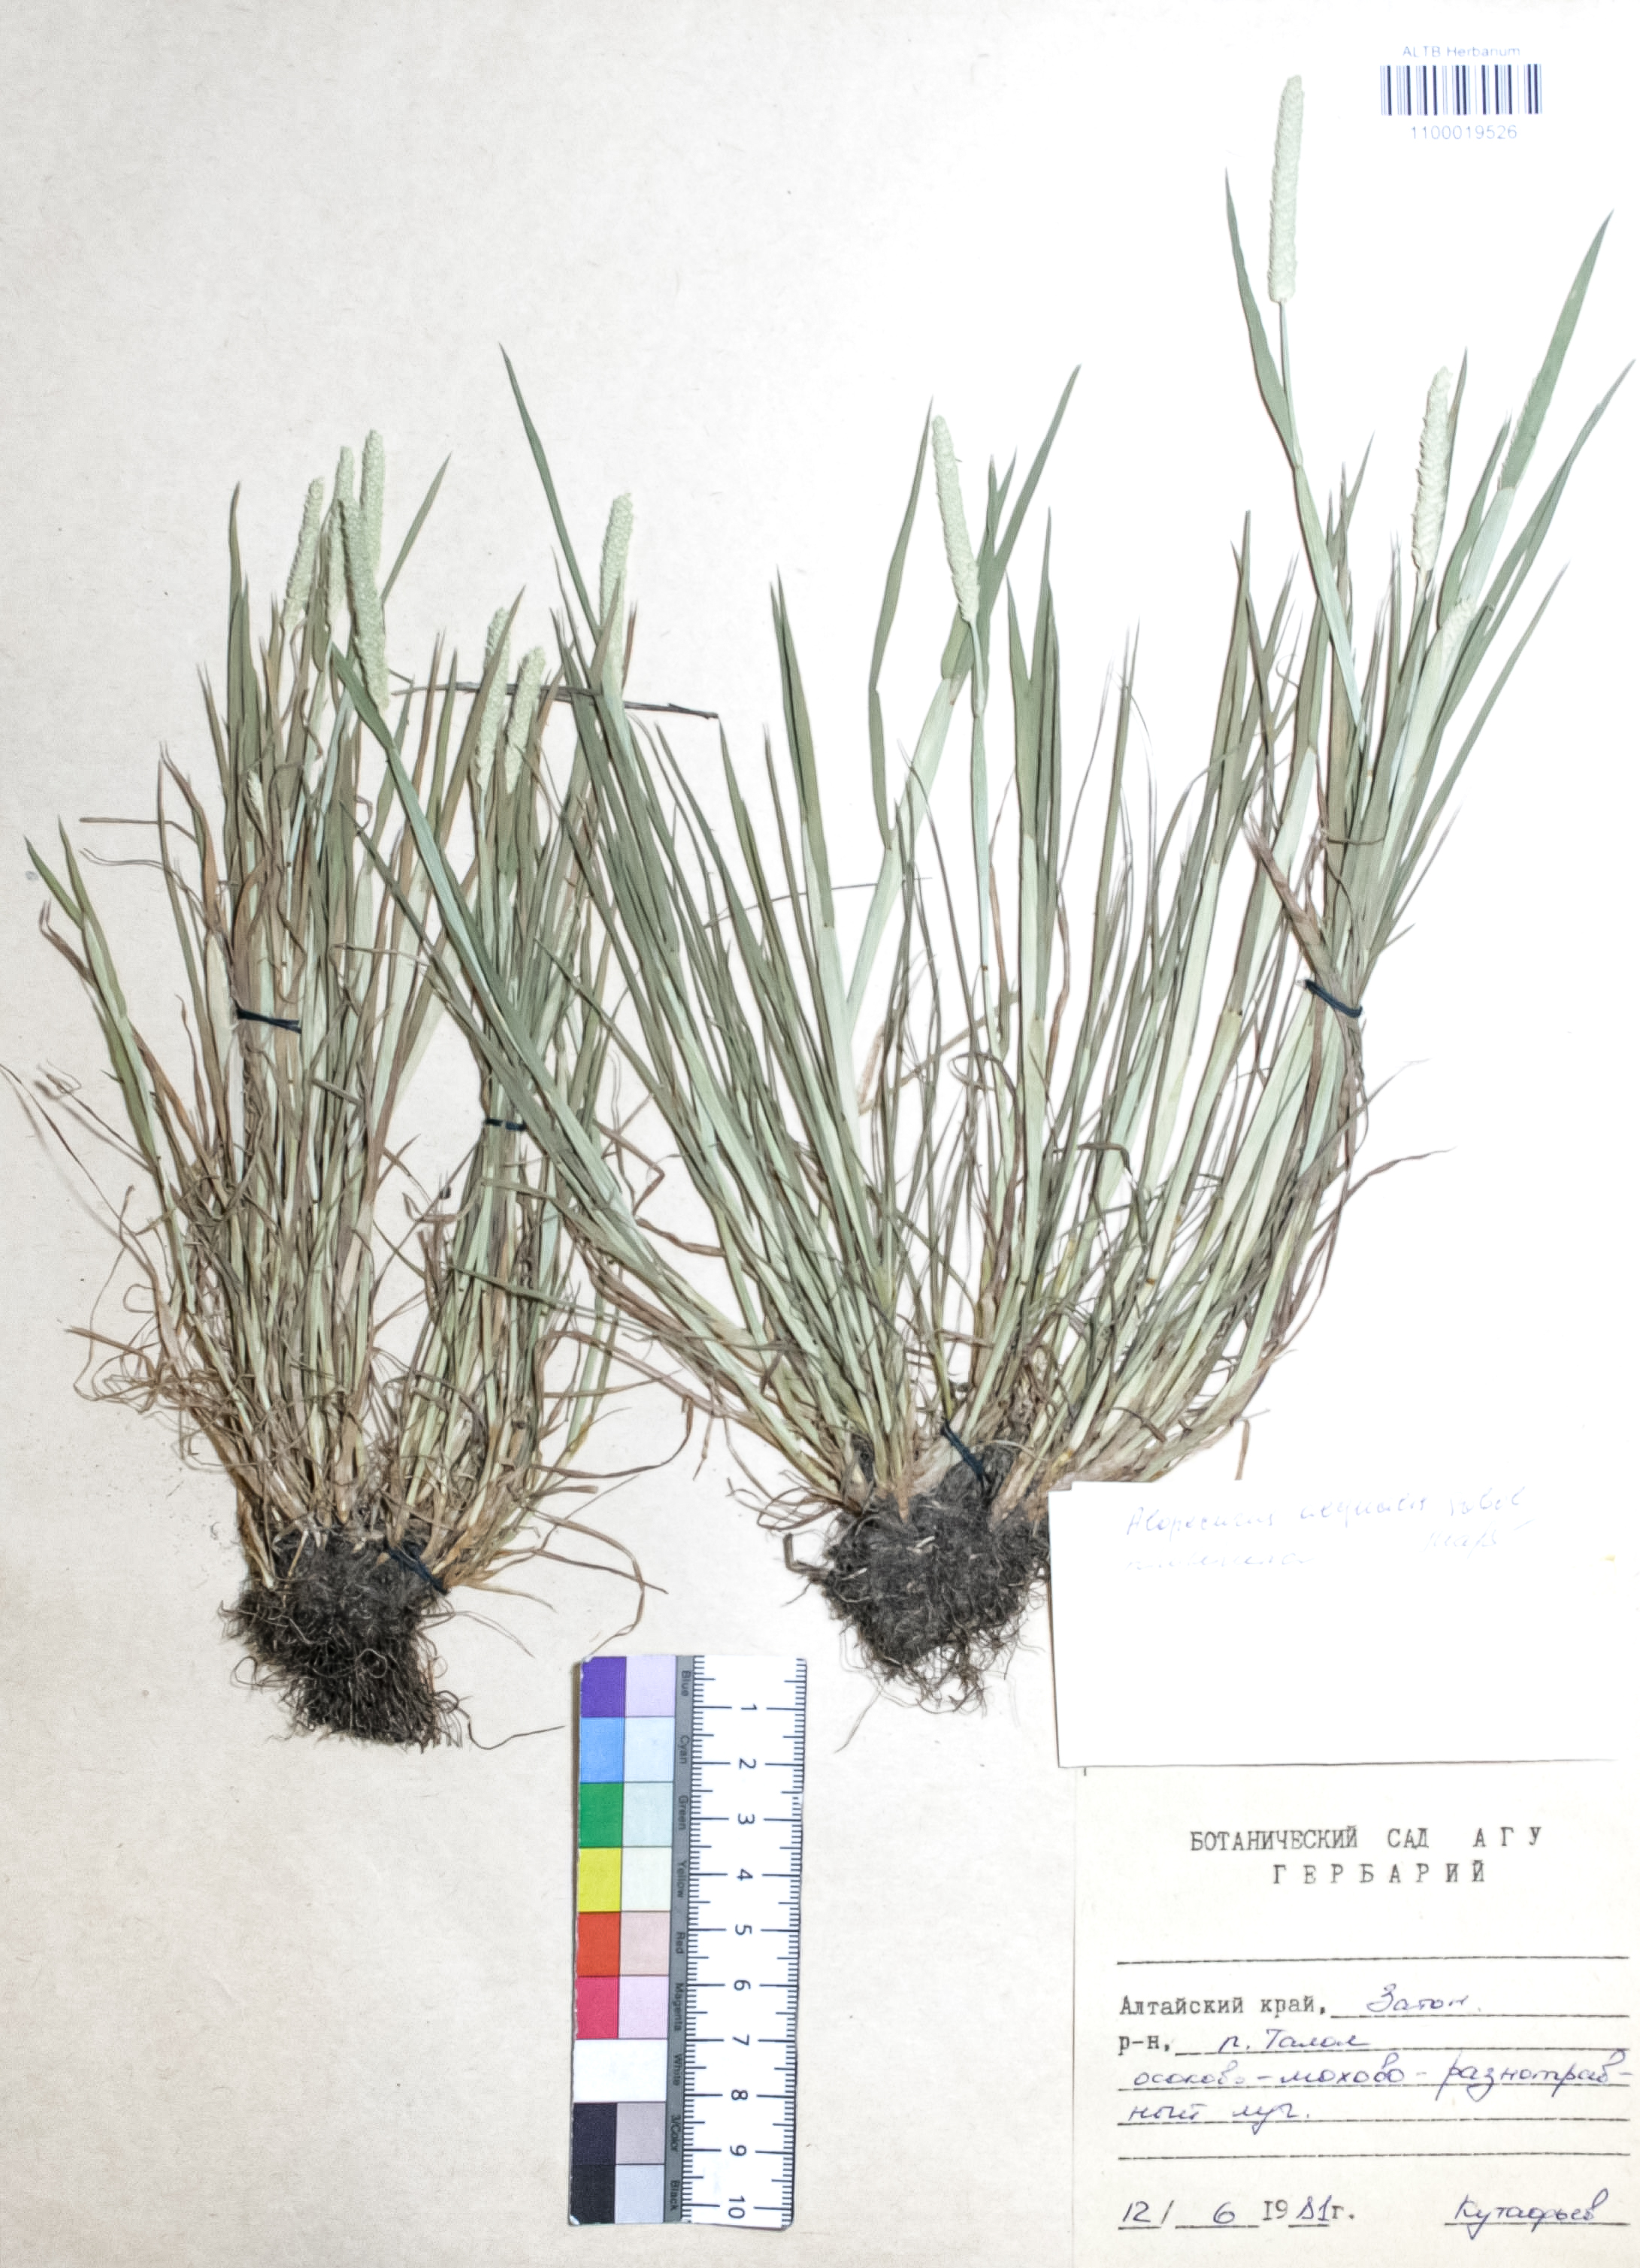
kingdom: Plantae
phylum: Tracheophyta
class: Liliopsida
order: Poales
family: Poaceae
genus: Alopecurus
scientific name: Alopecurus aequalis
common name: Orange foxtail
